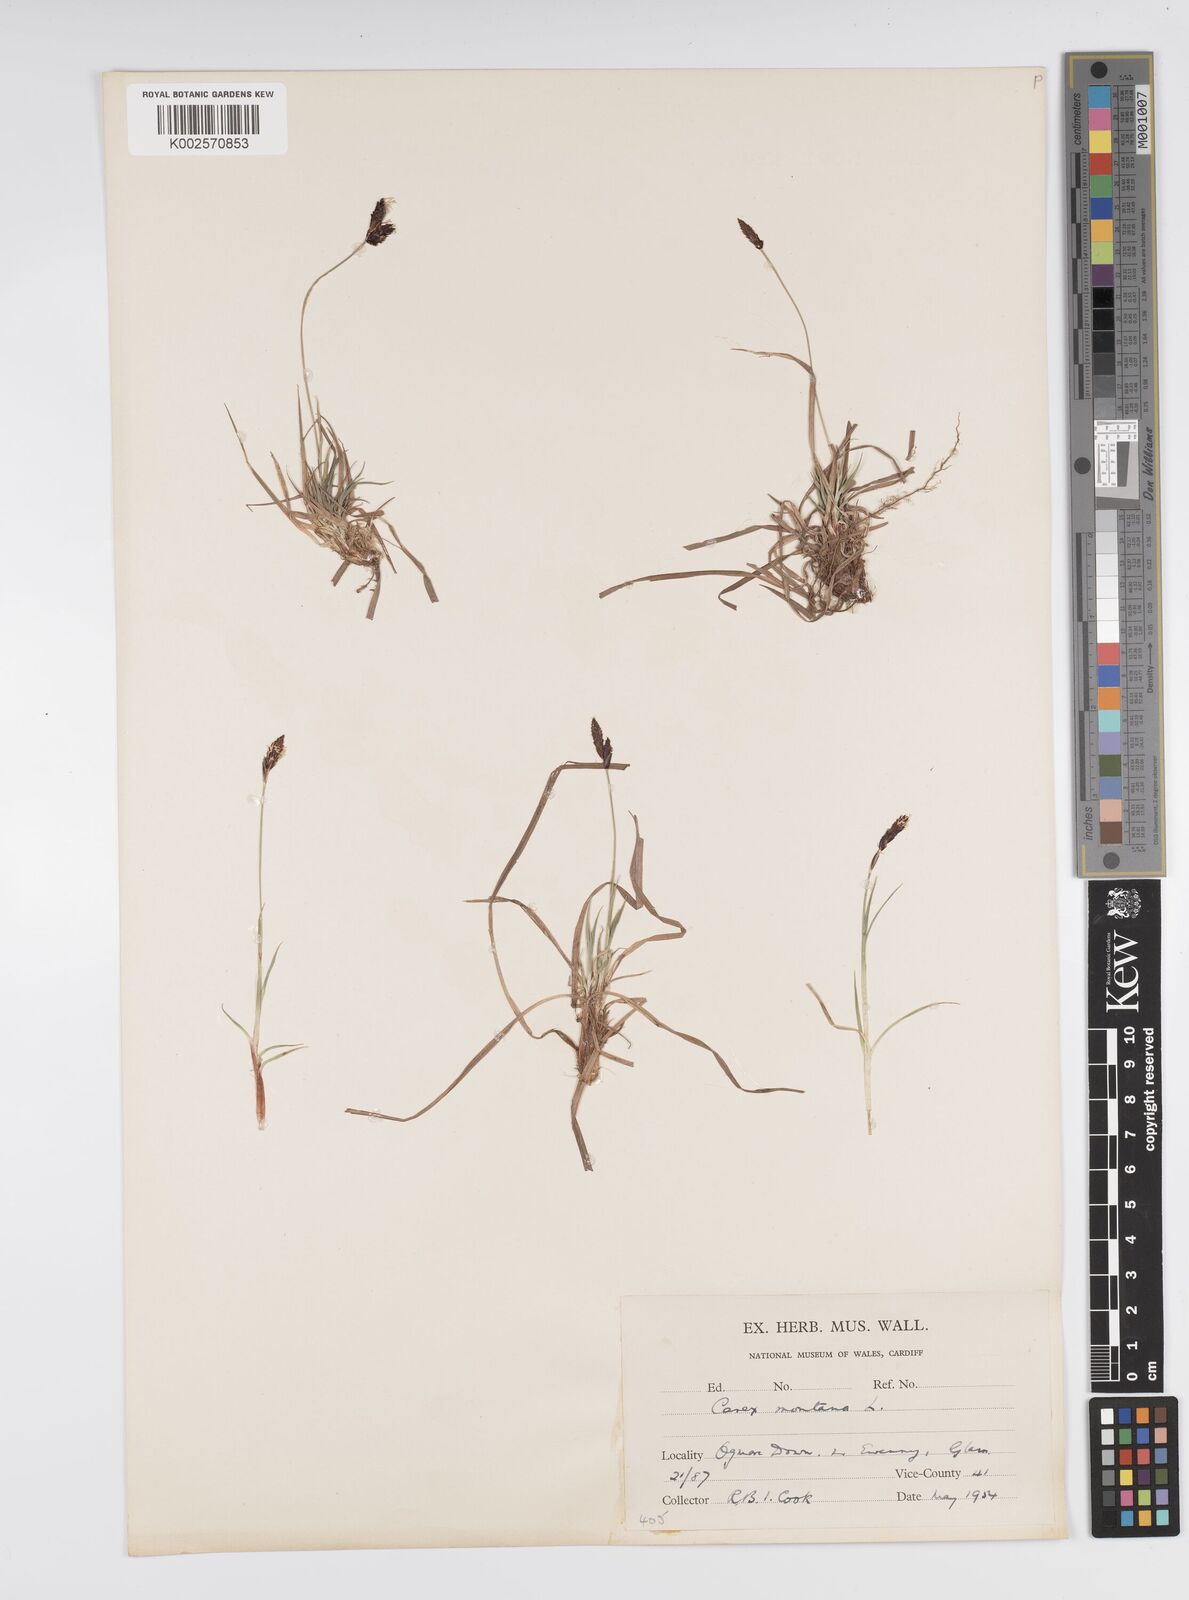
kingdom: Plantae
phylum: Tracheophyta
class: Liliopsida
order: Poales
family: Cyperaceae
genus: Carex
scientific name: Carex montana
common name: Soft-leaved sedge
